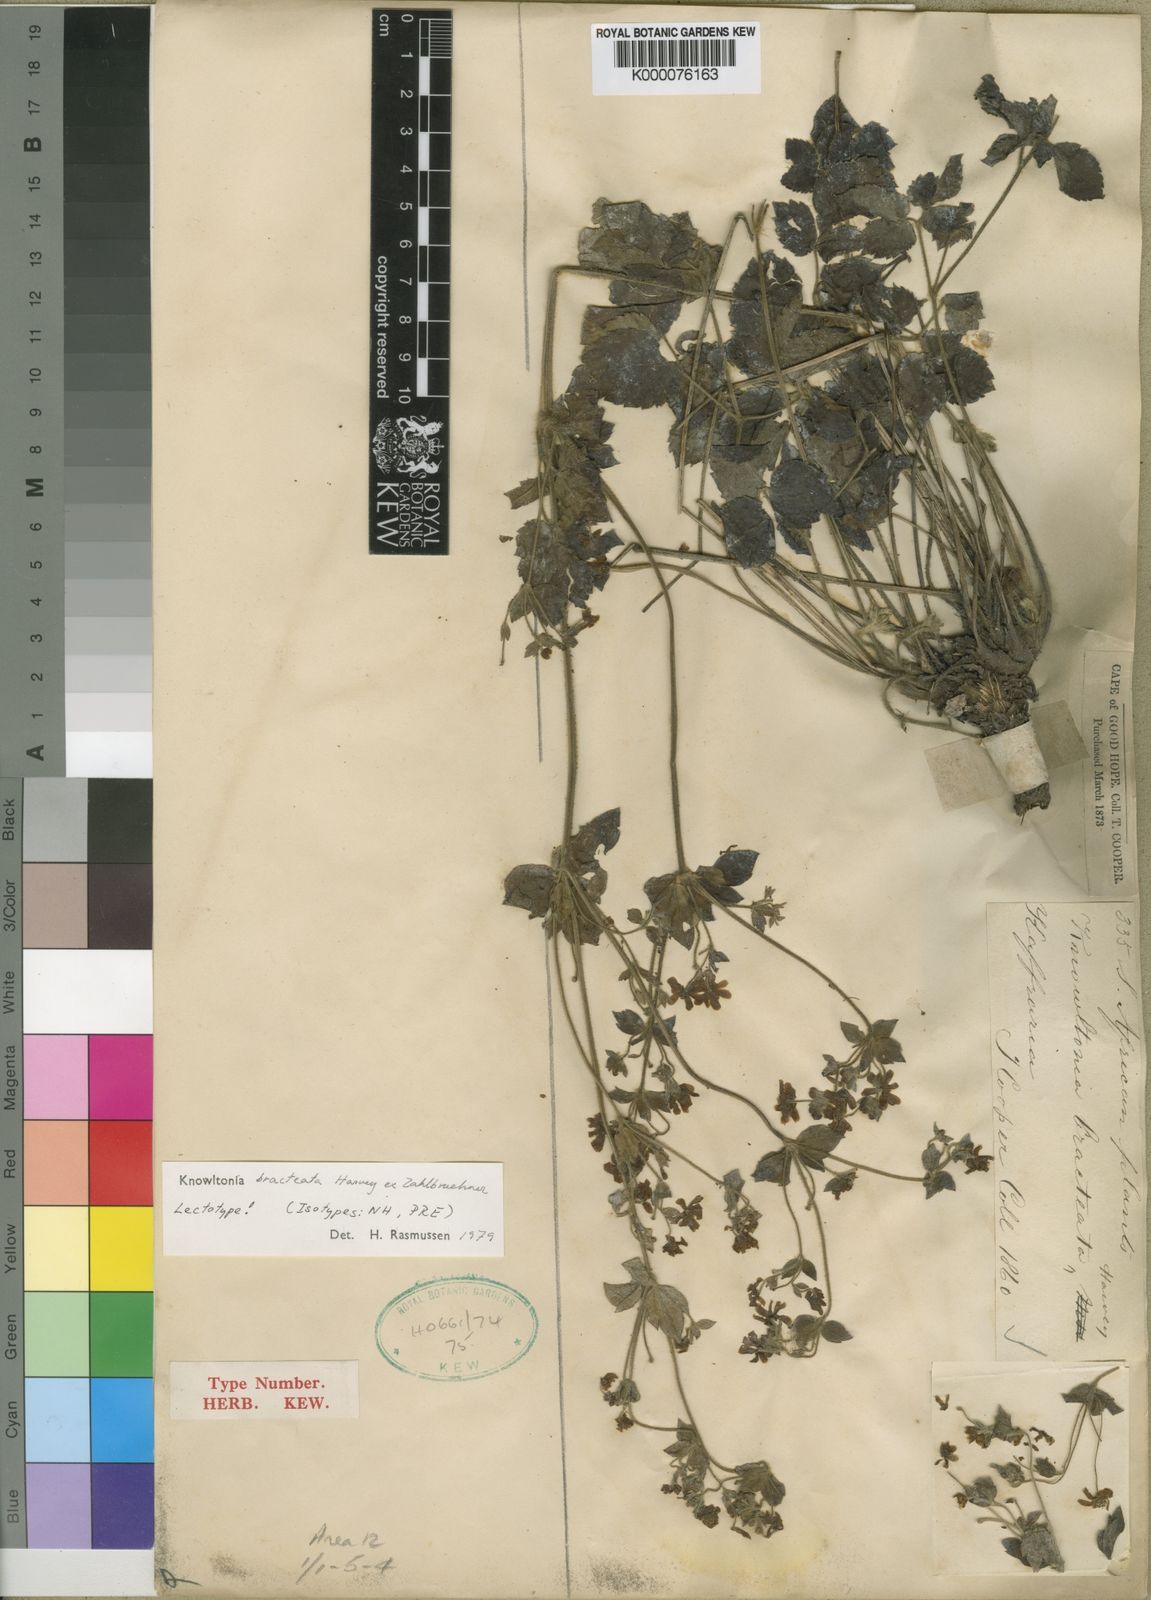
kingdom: Plantae
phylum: Tracheophyta
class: Magnoliopsida
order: Ranunculales
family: Ranunculaceae
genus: Knowltonia
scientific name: Knowltonia bracteata
